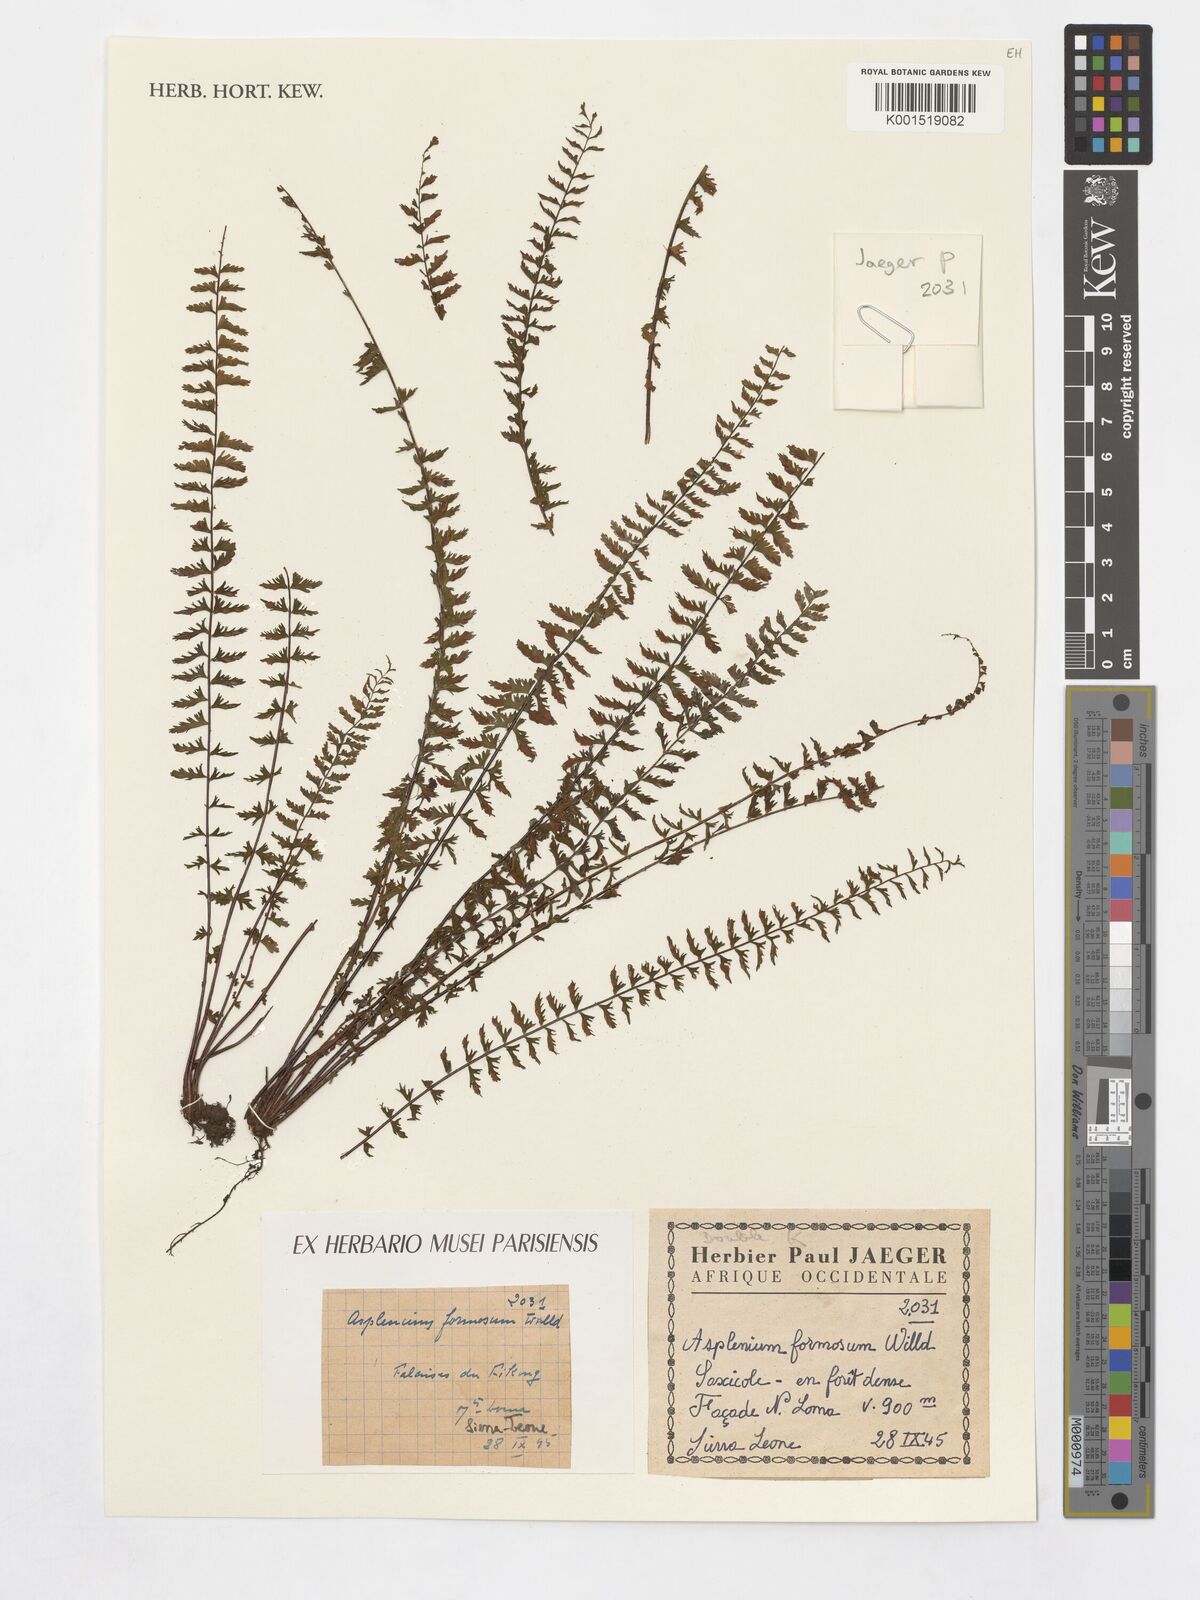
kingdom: Plantae
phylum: Tracheophyta
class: Polypodiopsida
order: Polypodiales
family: Aspleniaceae
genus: Asplenium
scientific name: Asplenium formosum
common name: Showy spleenwort
